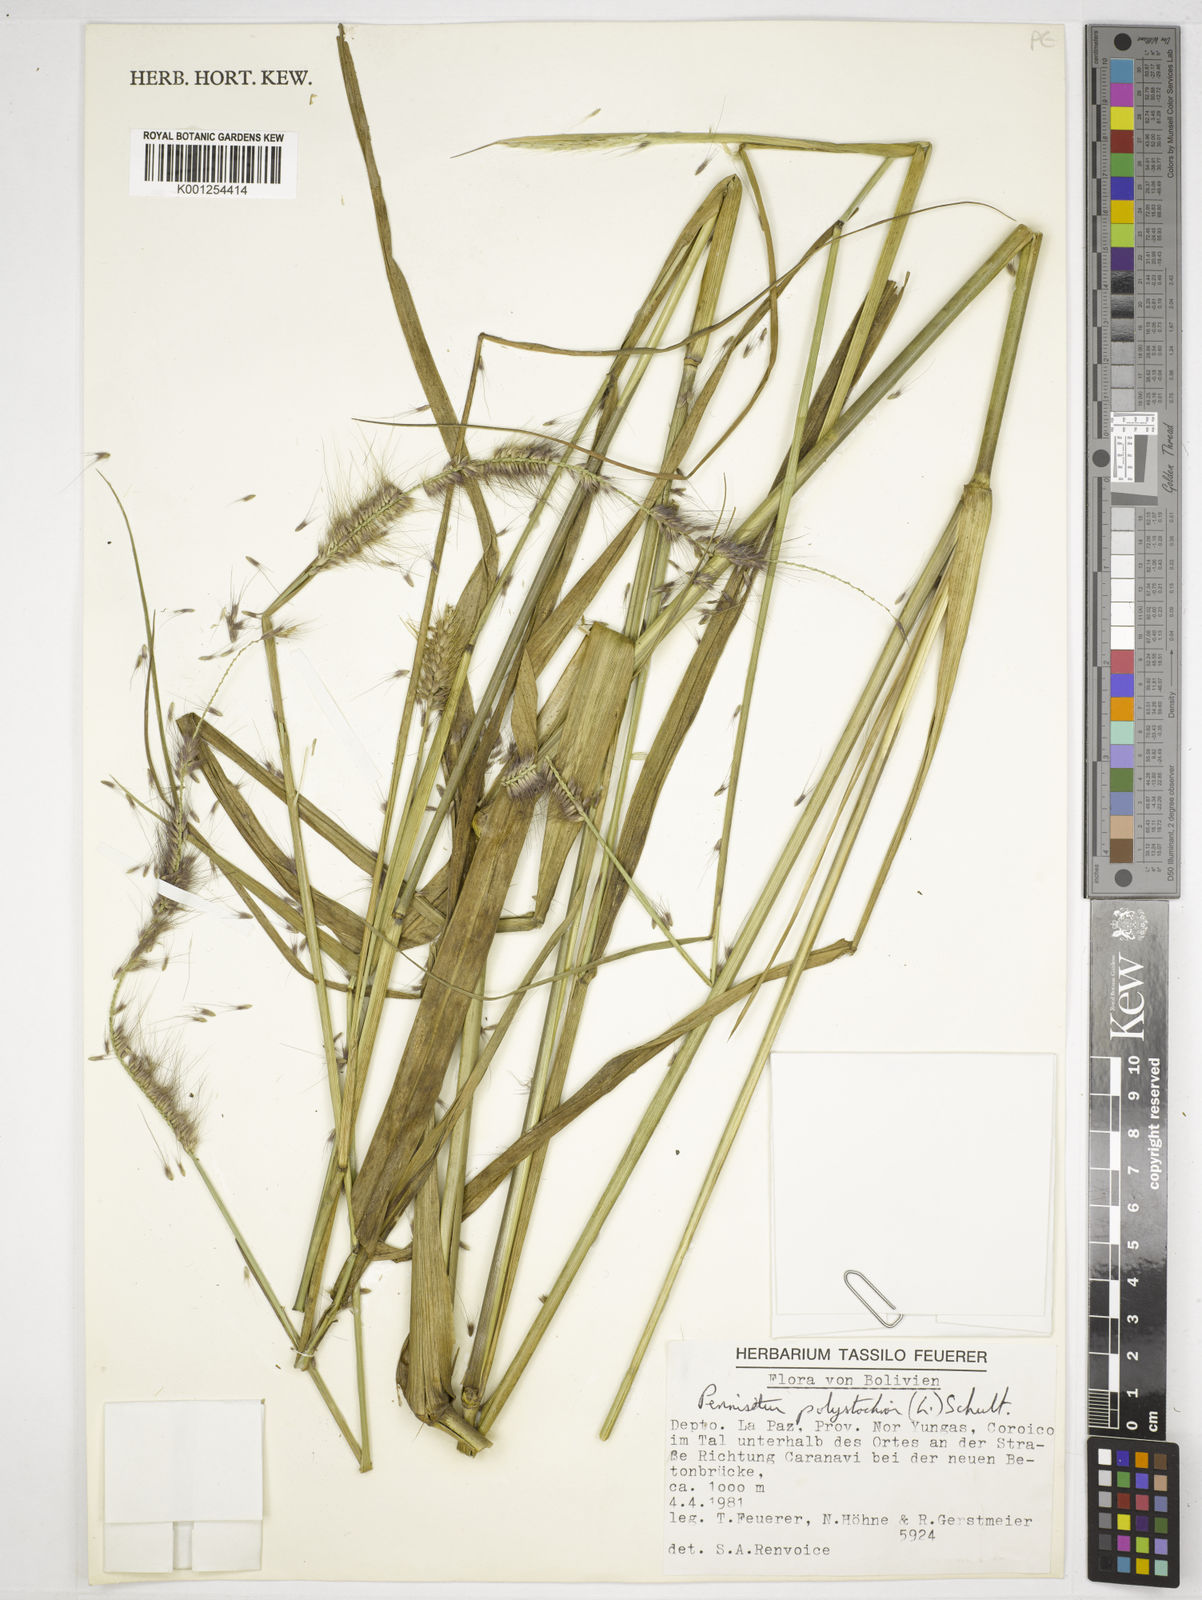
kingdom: Plantae
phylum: Tracheophyta
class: Liliopsida
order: Poales
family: Poaceae
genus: Setaria
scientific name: Setaria parviflora
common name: Knotroot bristle-grass
